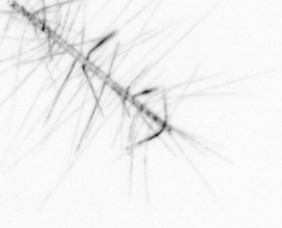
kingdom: Chromista
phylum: Ochrophyta
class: Bacillariophyceae
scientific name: Bacillariophyceae
